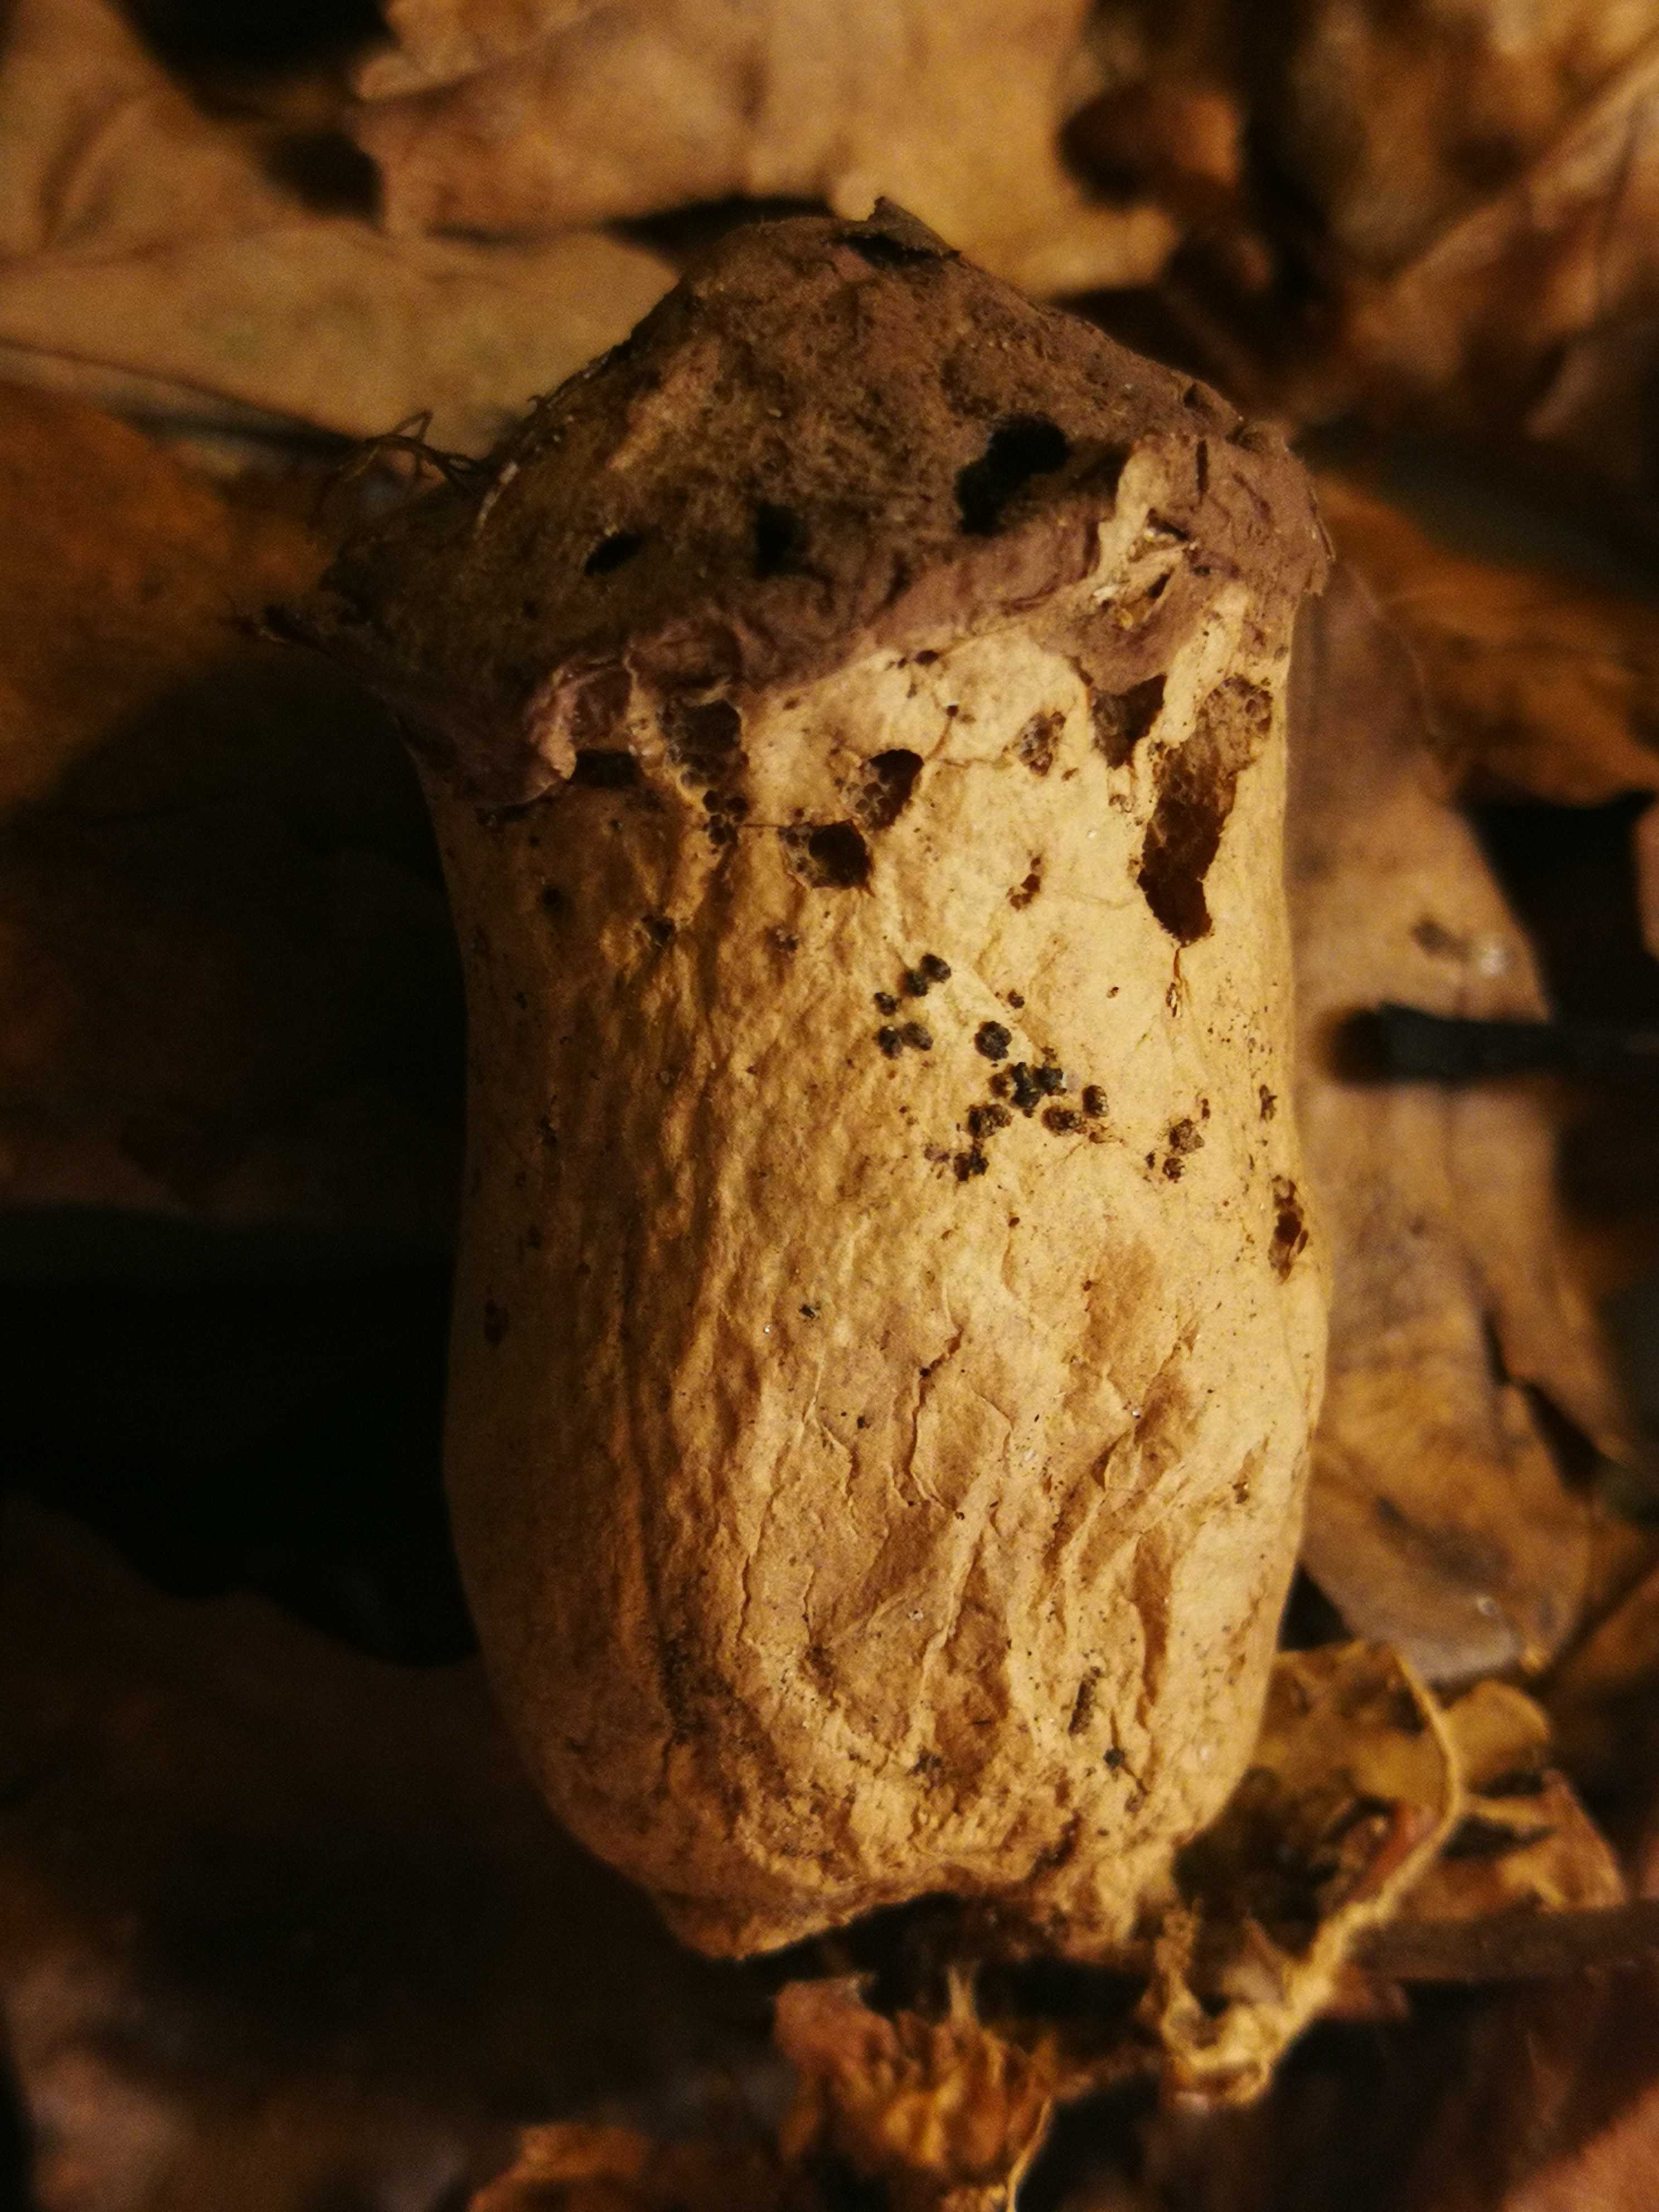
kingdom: Fungi
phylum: Basidiomycota
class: Agaricomycetes
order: Agaricales
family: Lycoperdaceae
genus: Lycoperdon
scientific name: Lycoperdon excipuliforme
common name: højstokket støvbold
